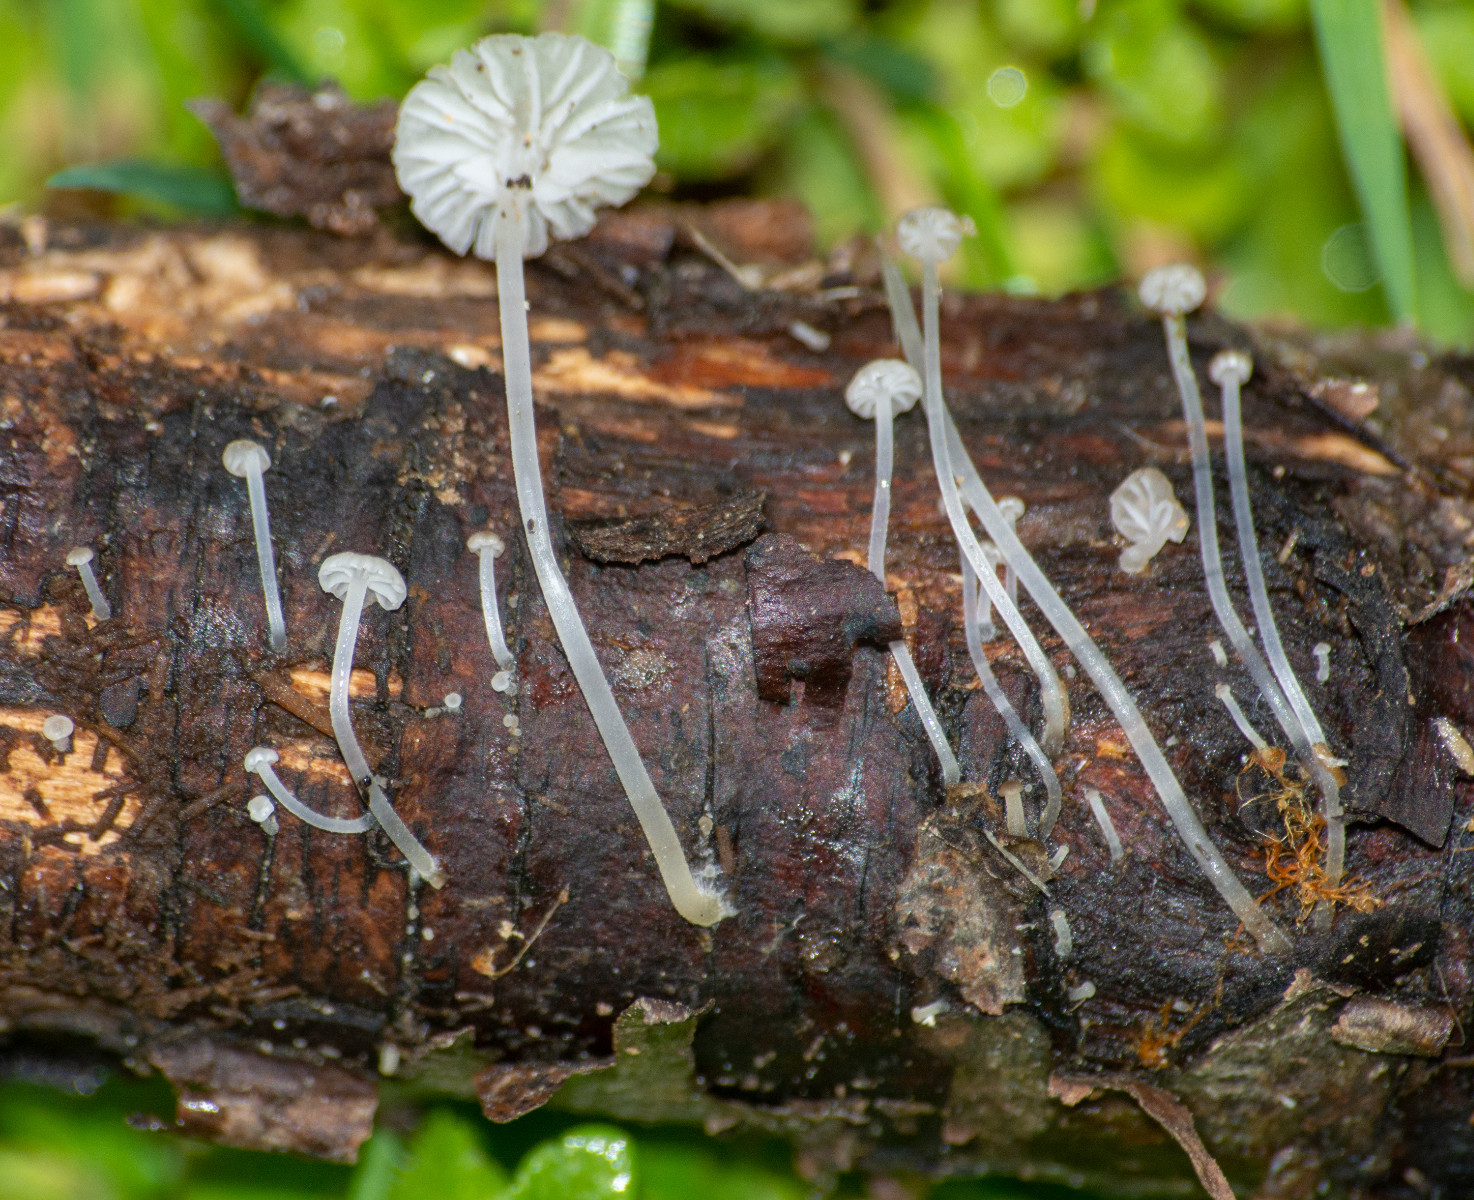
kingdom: Fungi
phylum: Basidiomycota
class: Agaricomycetes
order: Agaricales
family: Porotheleaceae
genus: Phloeomana
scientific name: Phloeomana speirea
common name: kvist-huesvamp
